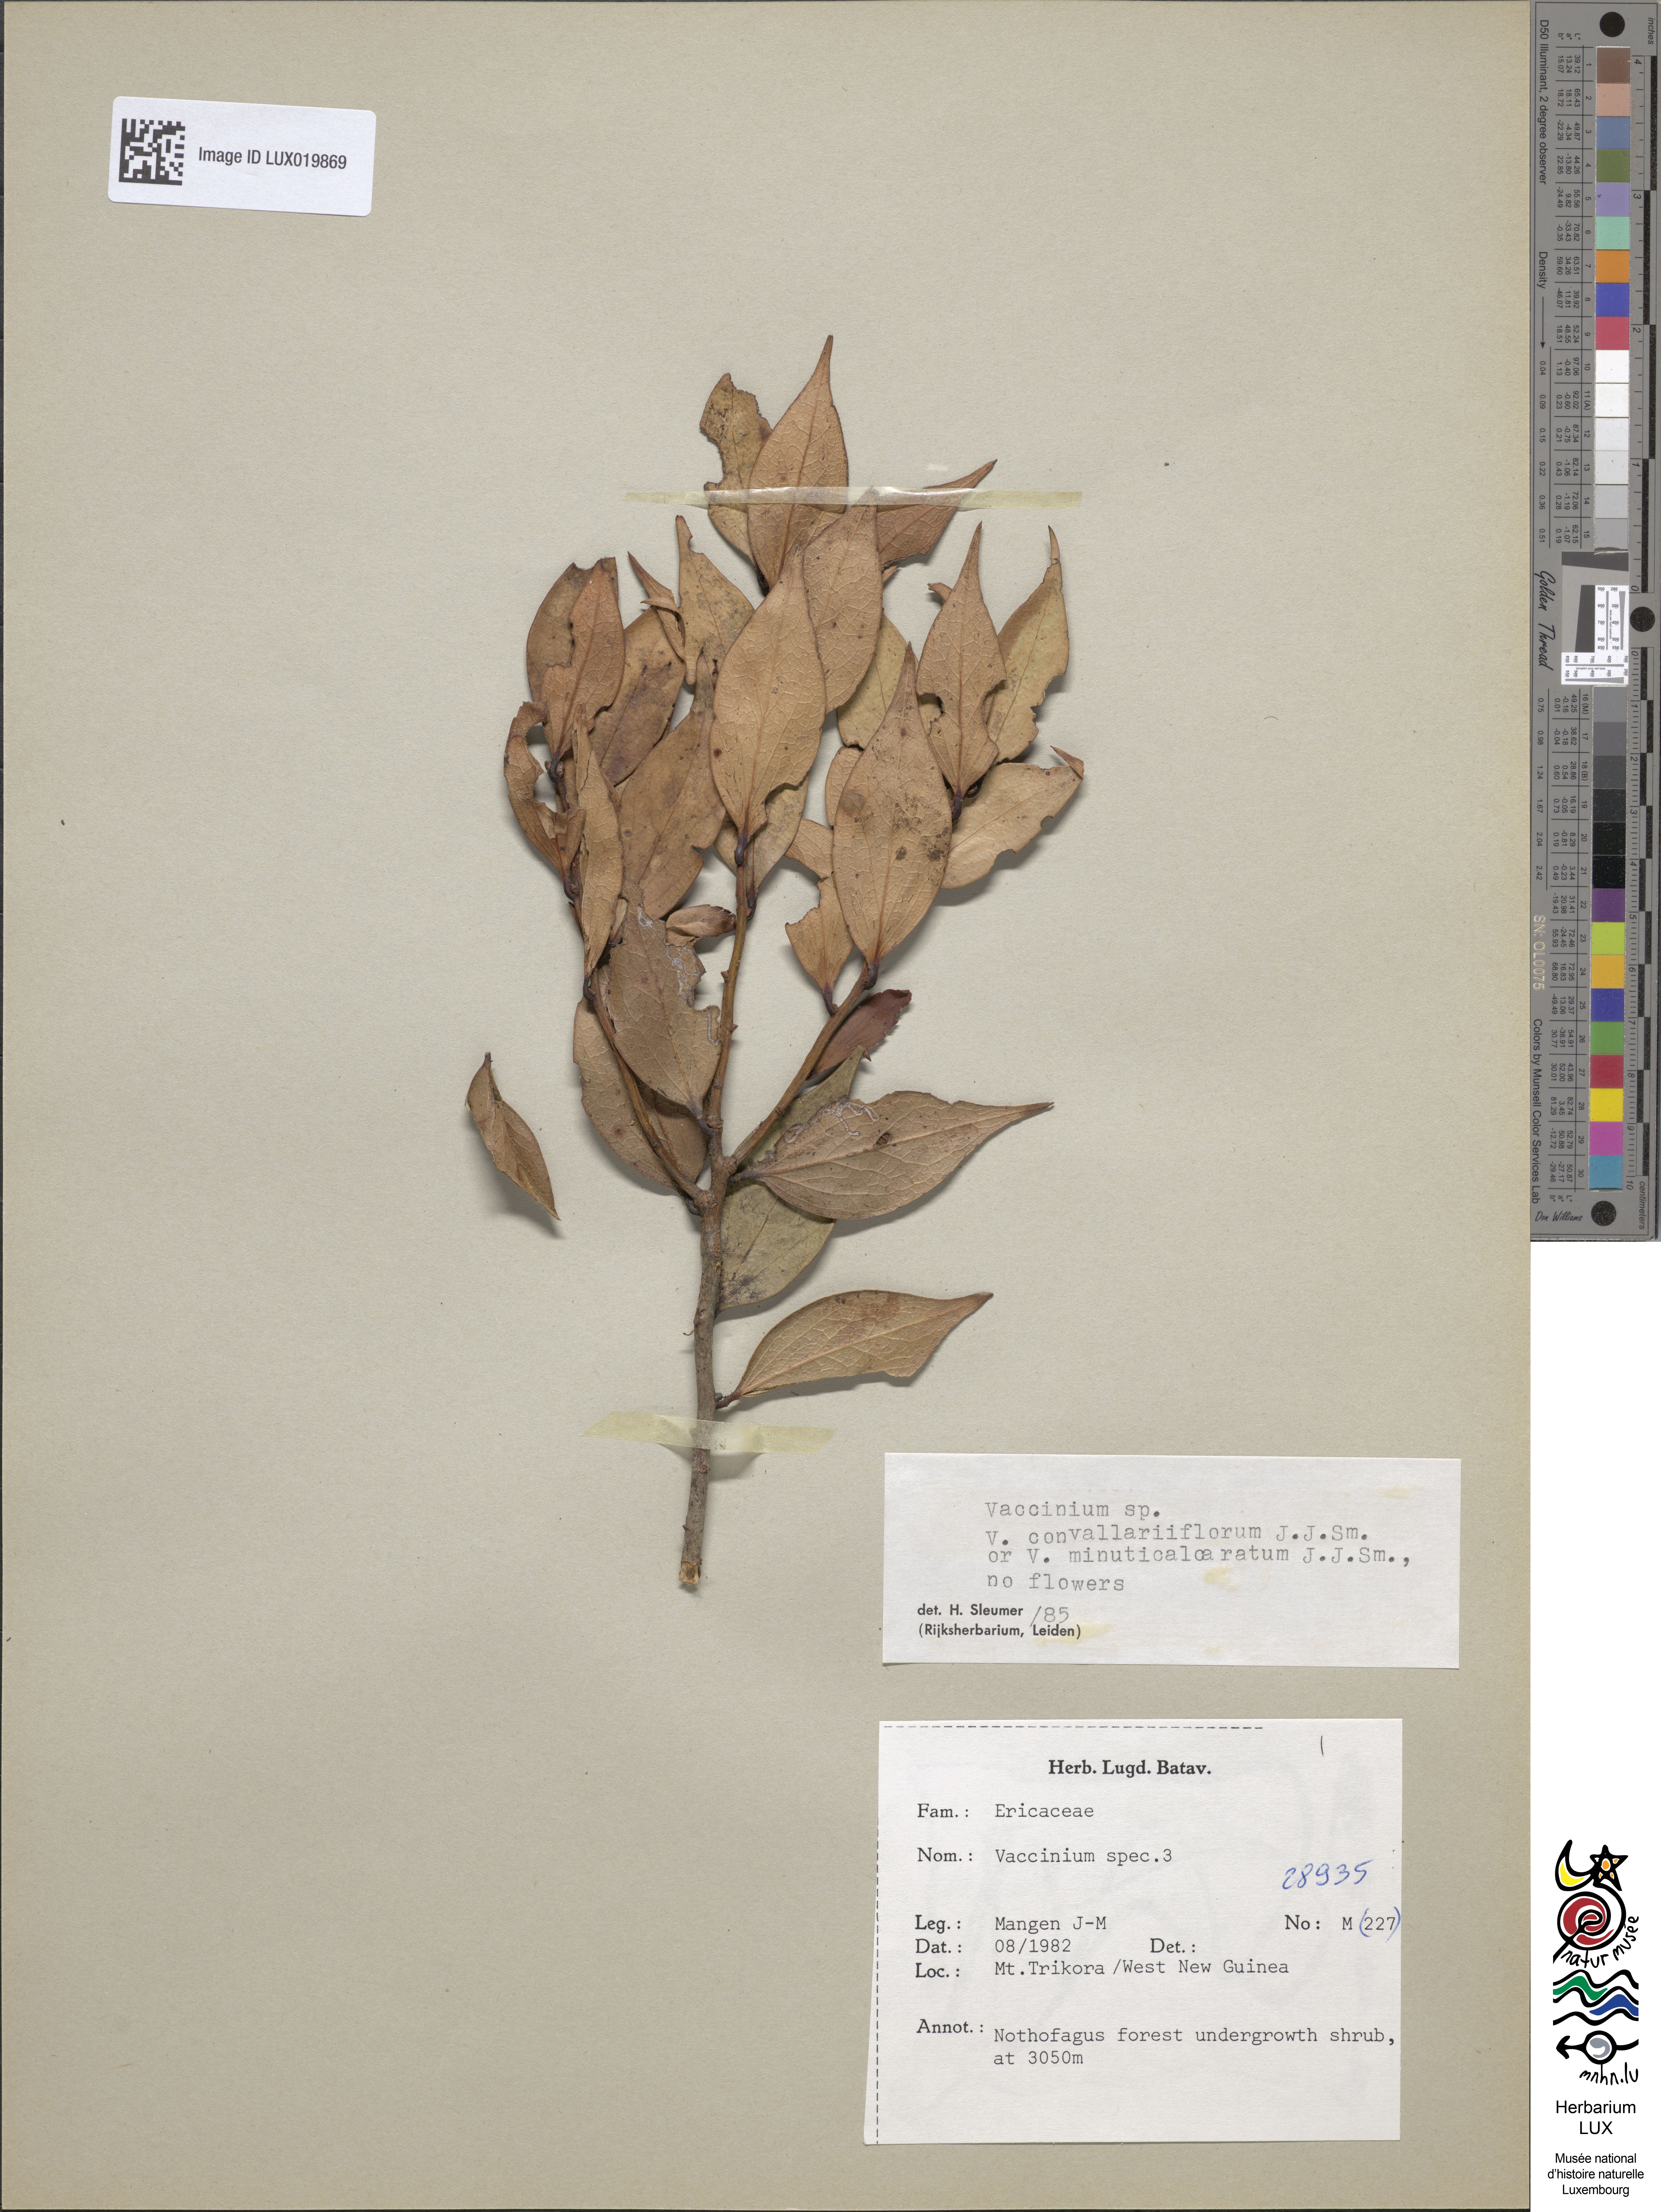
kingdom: Plantae
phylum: Tracheophyta
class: Magnoliopsida
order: Ericales
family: Ericaceae
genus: Vaccinium
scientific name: Vaccinium
